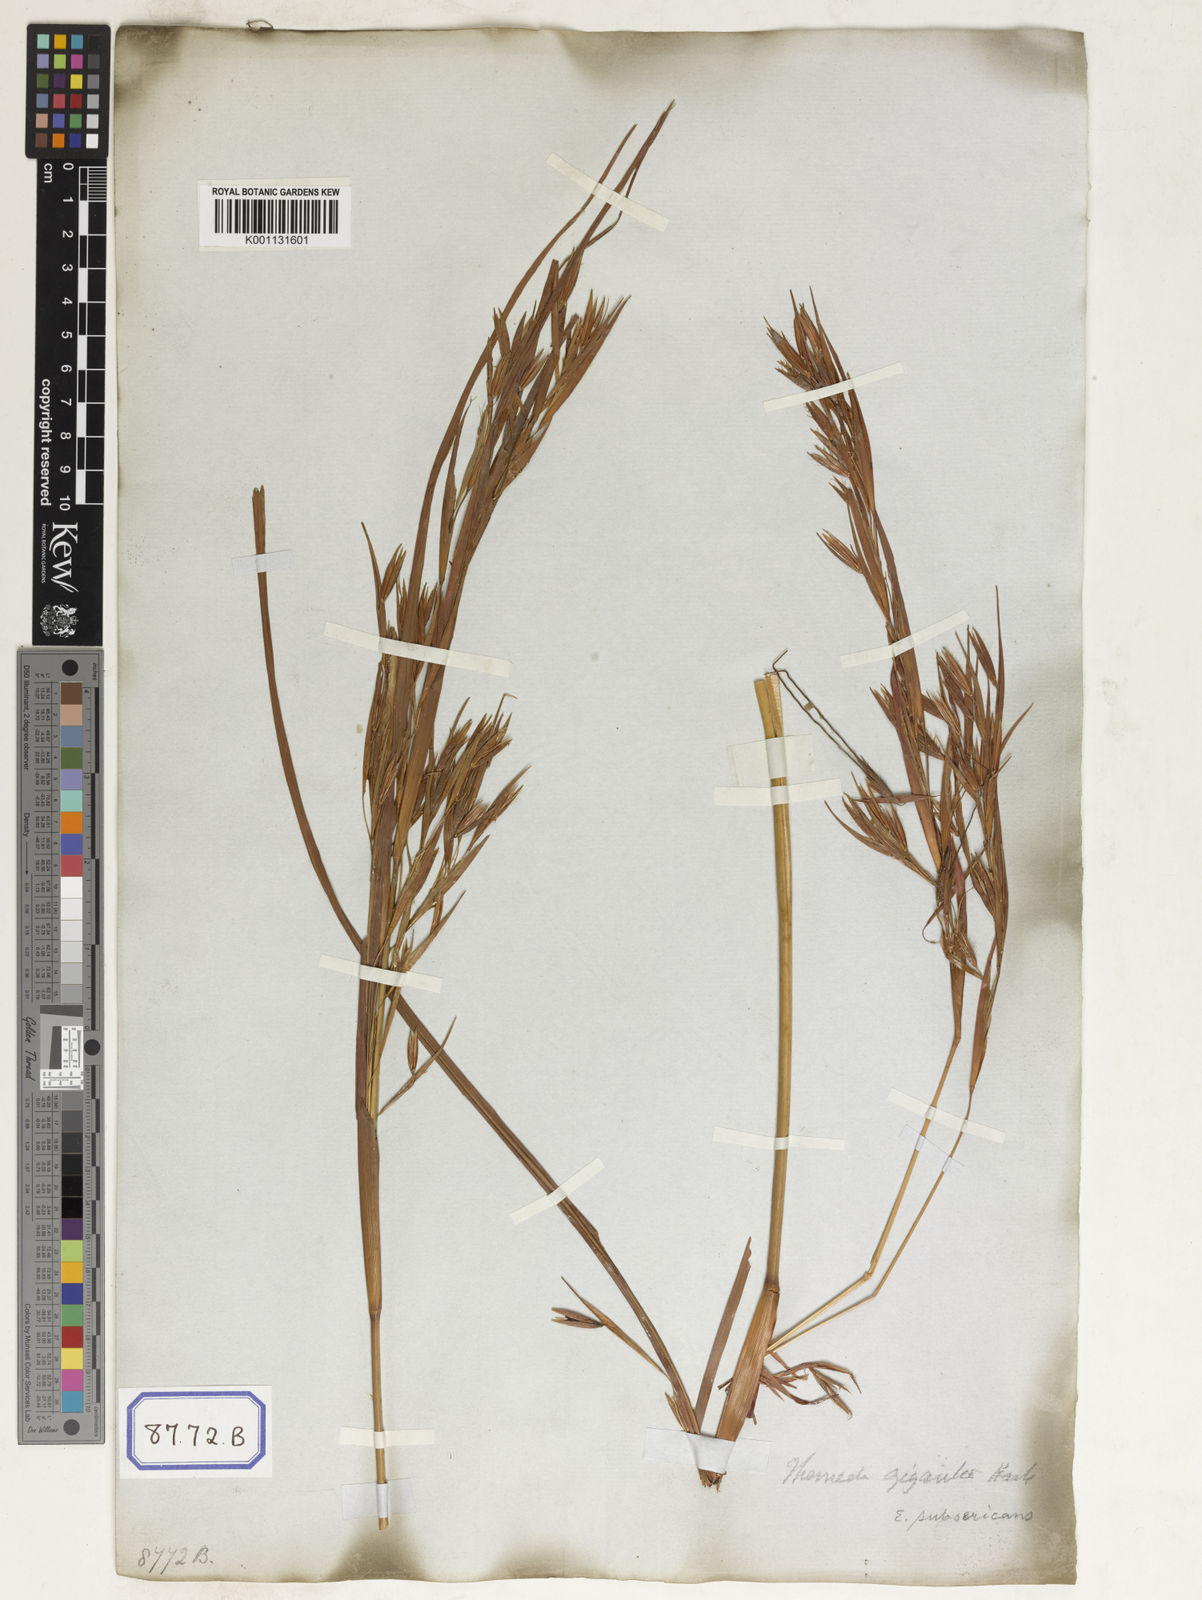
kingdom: Plantae
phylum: Tracheophyta
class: Liliopsida
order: Poales
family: Poaceae
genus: Themeda
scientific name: Themeda
